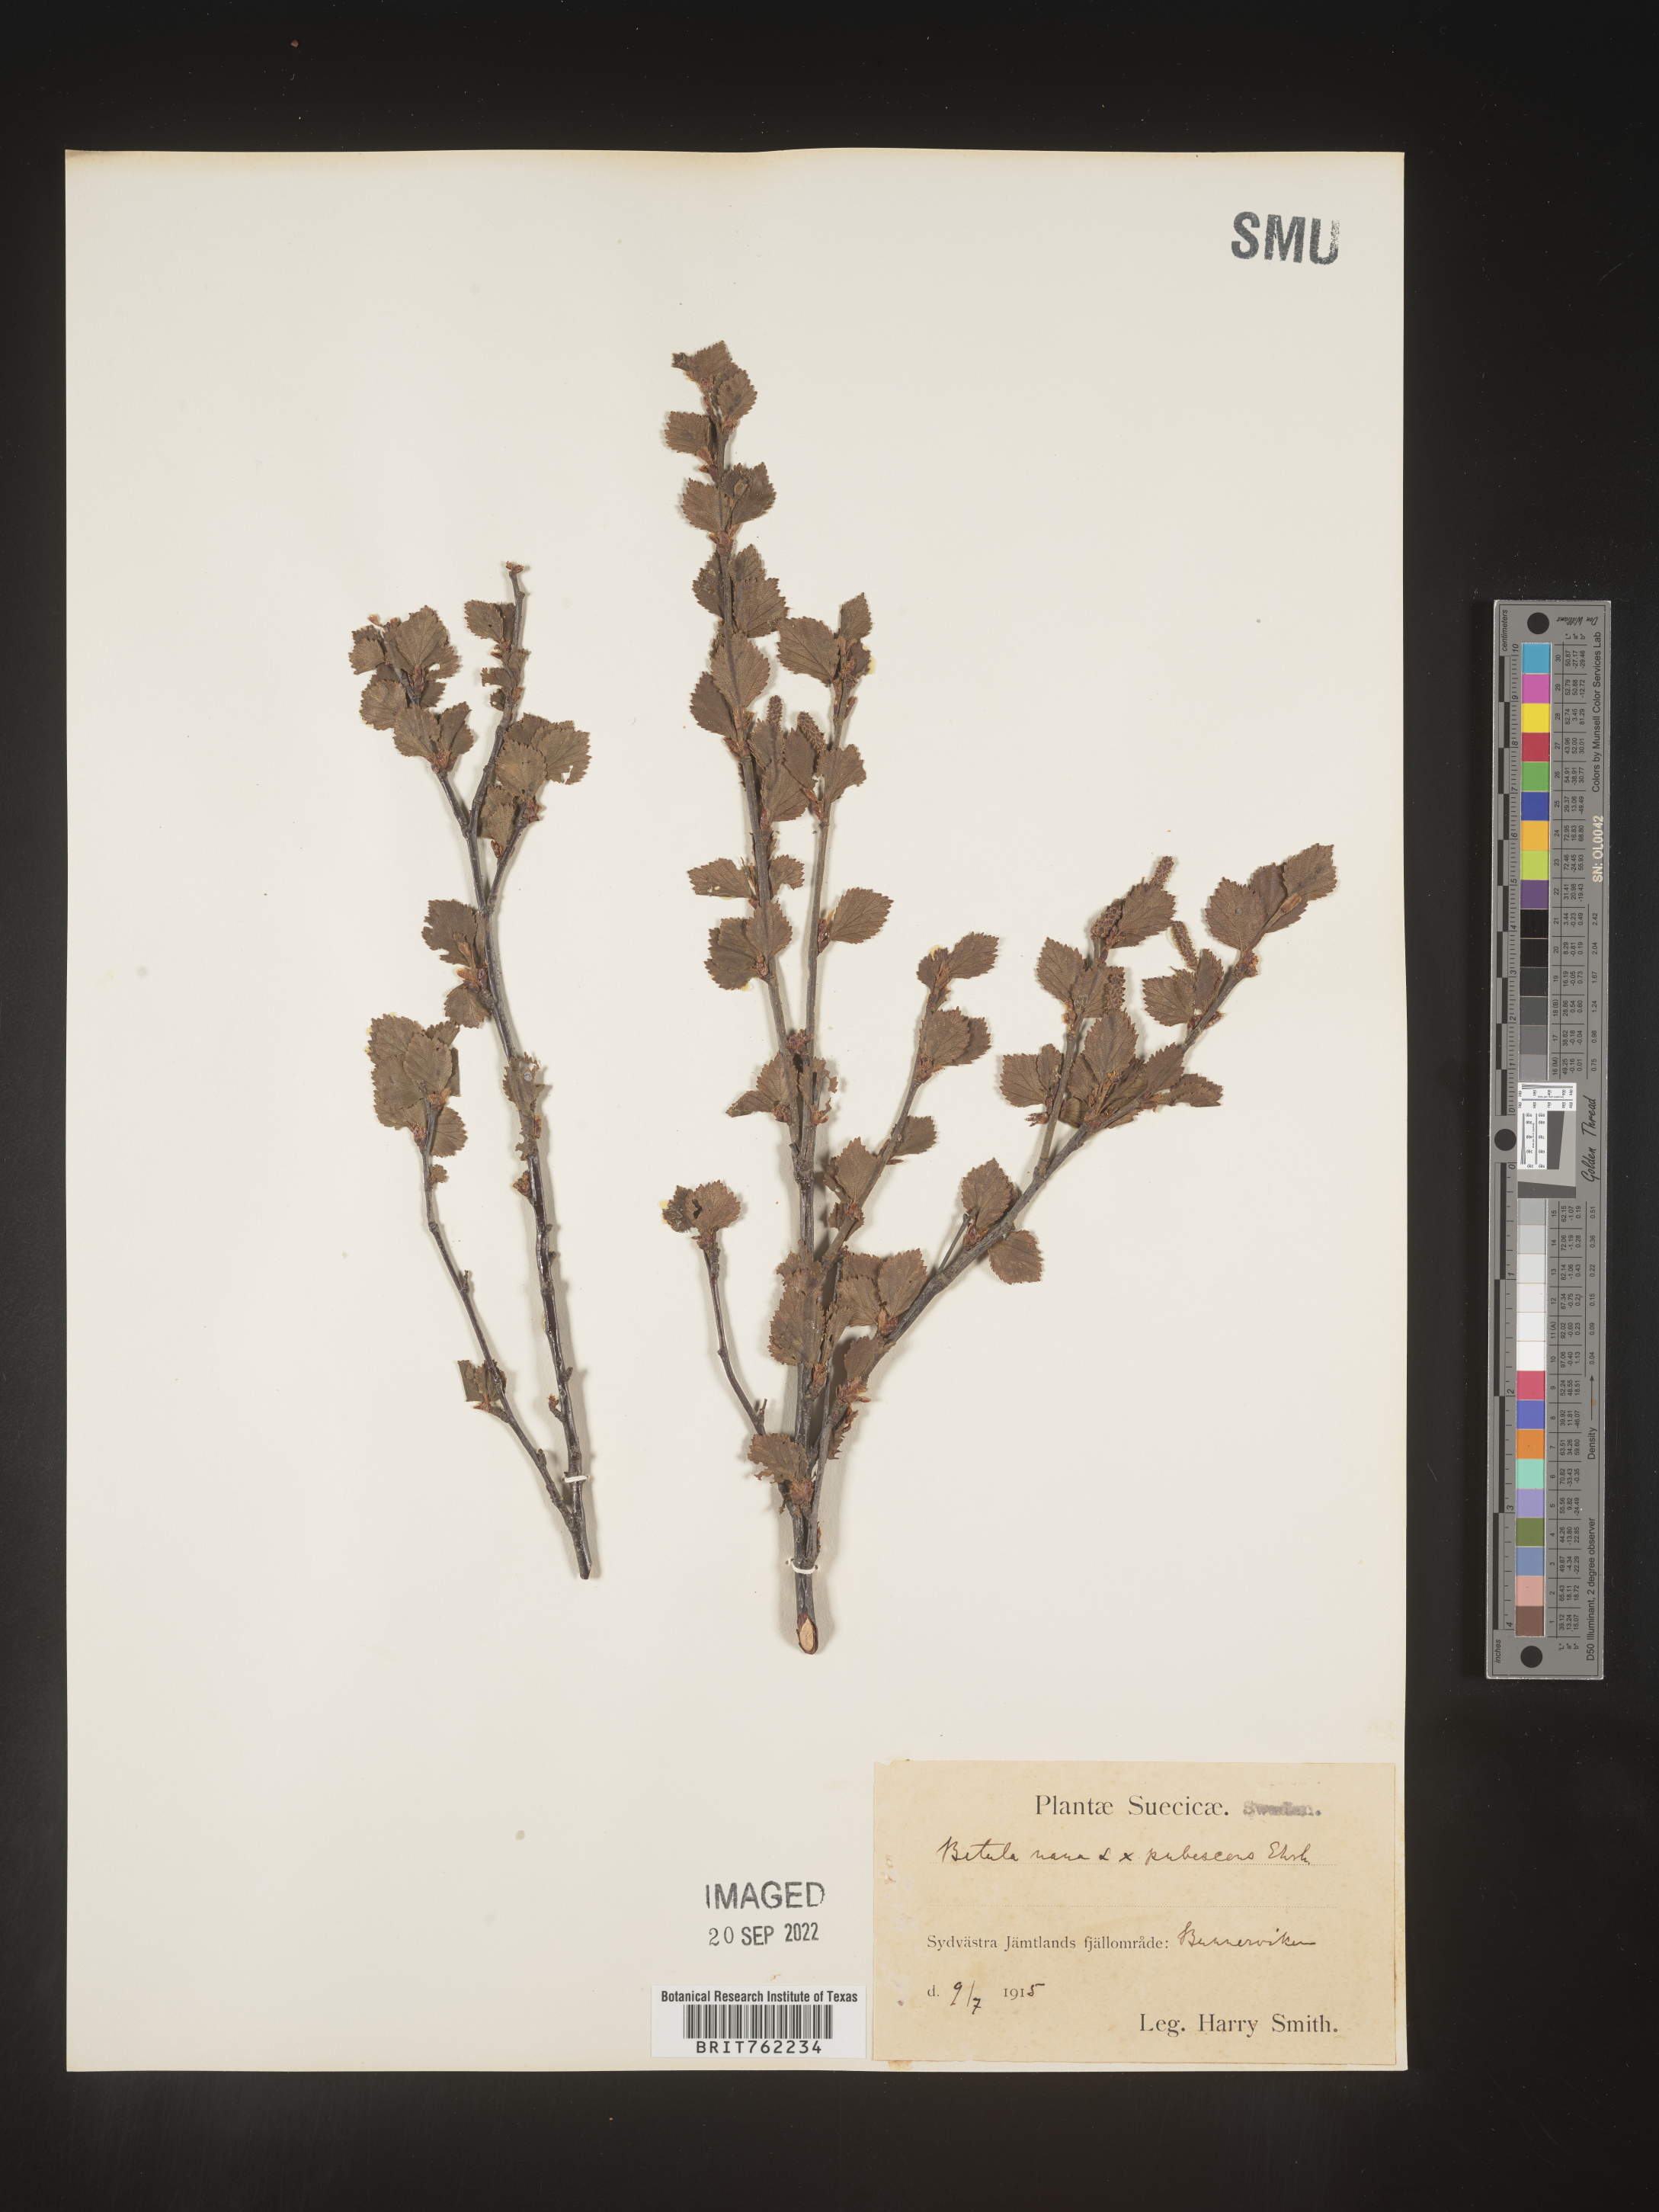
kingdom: Plantae
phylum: Tracheophyta
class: Magnoliopsida
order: Fagales
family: Betulaceae
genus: Betula
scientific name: Betula
